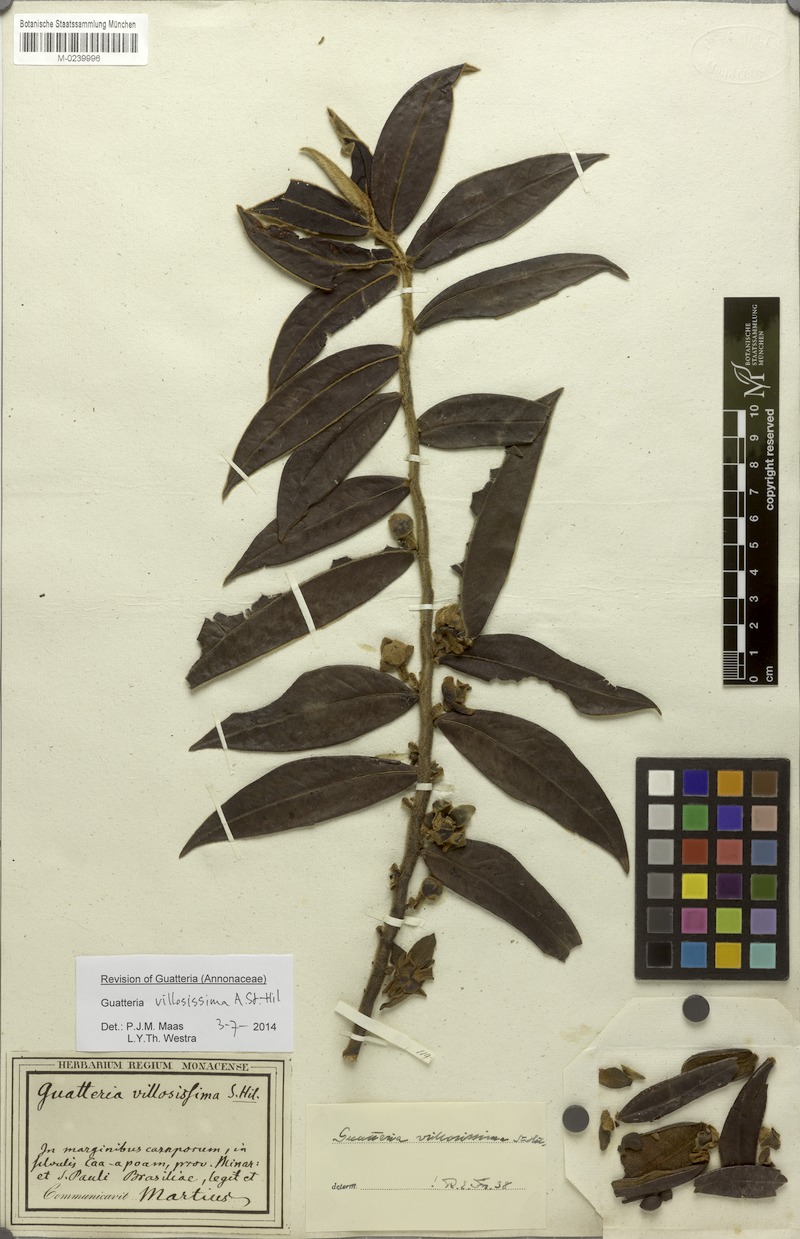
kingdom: Plantae
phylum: Tracheophyta
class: Magnoliopsida
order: Magnoliales
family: Annonaceae
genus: Guatteria
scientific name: Guatteria villosissima
